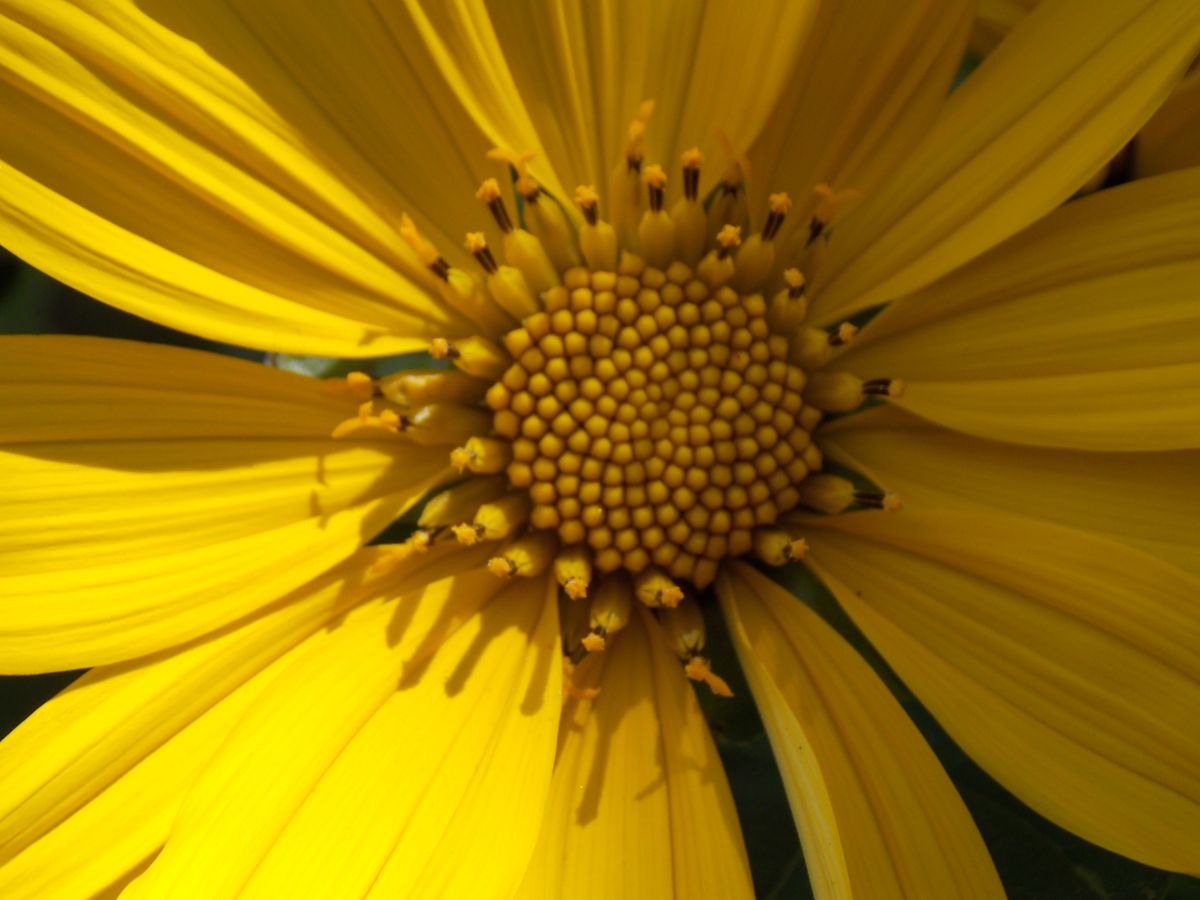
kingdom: Plantae
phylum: Tracheophyta
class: Magnoliopsida
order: Asterales
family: Asteraceae
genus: Tithonia
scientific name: Tithonia diversifolia
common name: Tree marigold
